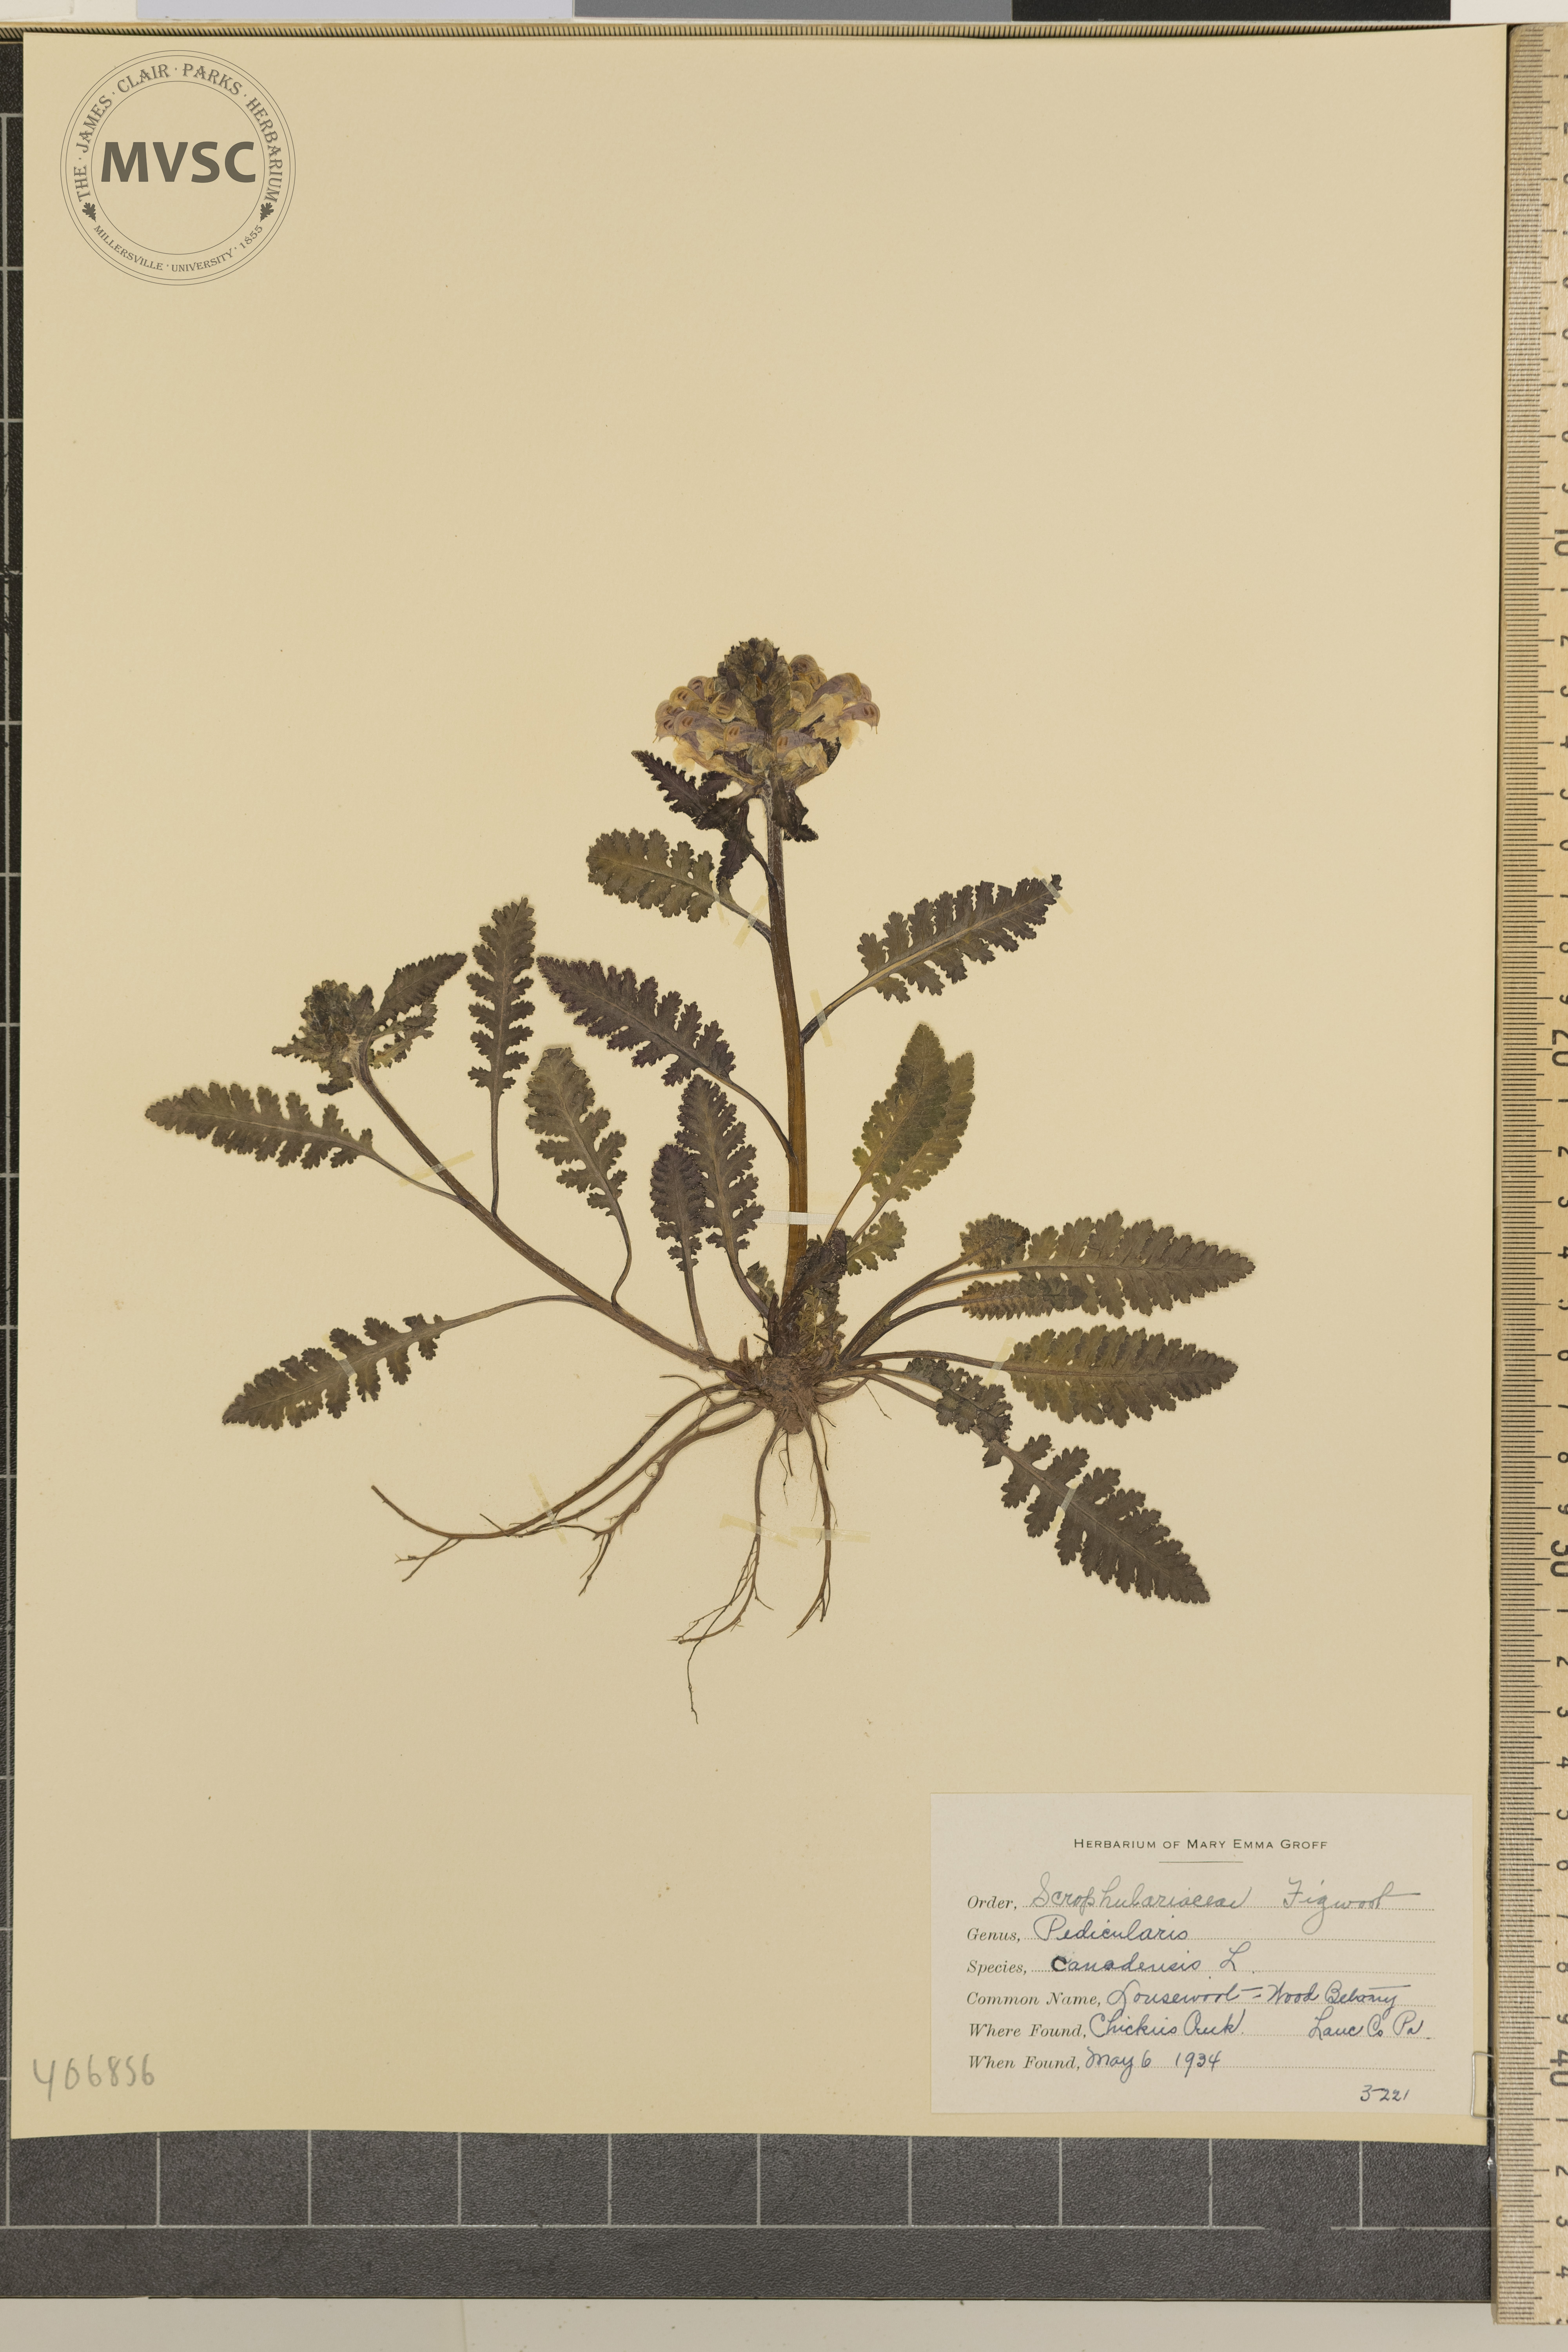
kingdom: Plantae
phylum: Tracheophyta
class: Magnoliopsida
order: Lamiales
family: Orobanchaceae
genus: Pedicularis
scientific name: Pedicularis canadensis
